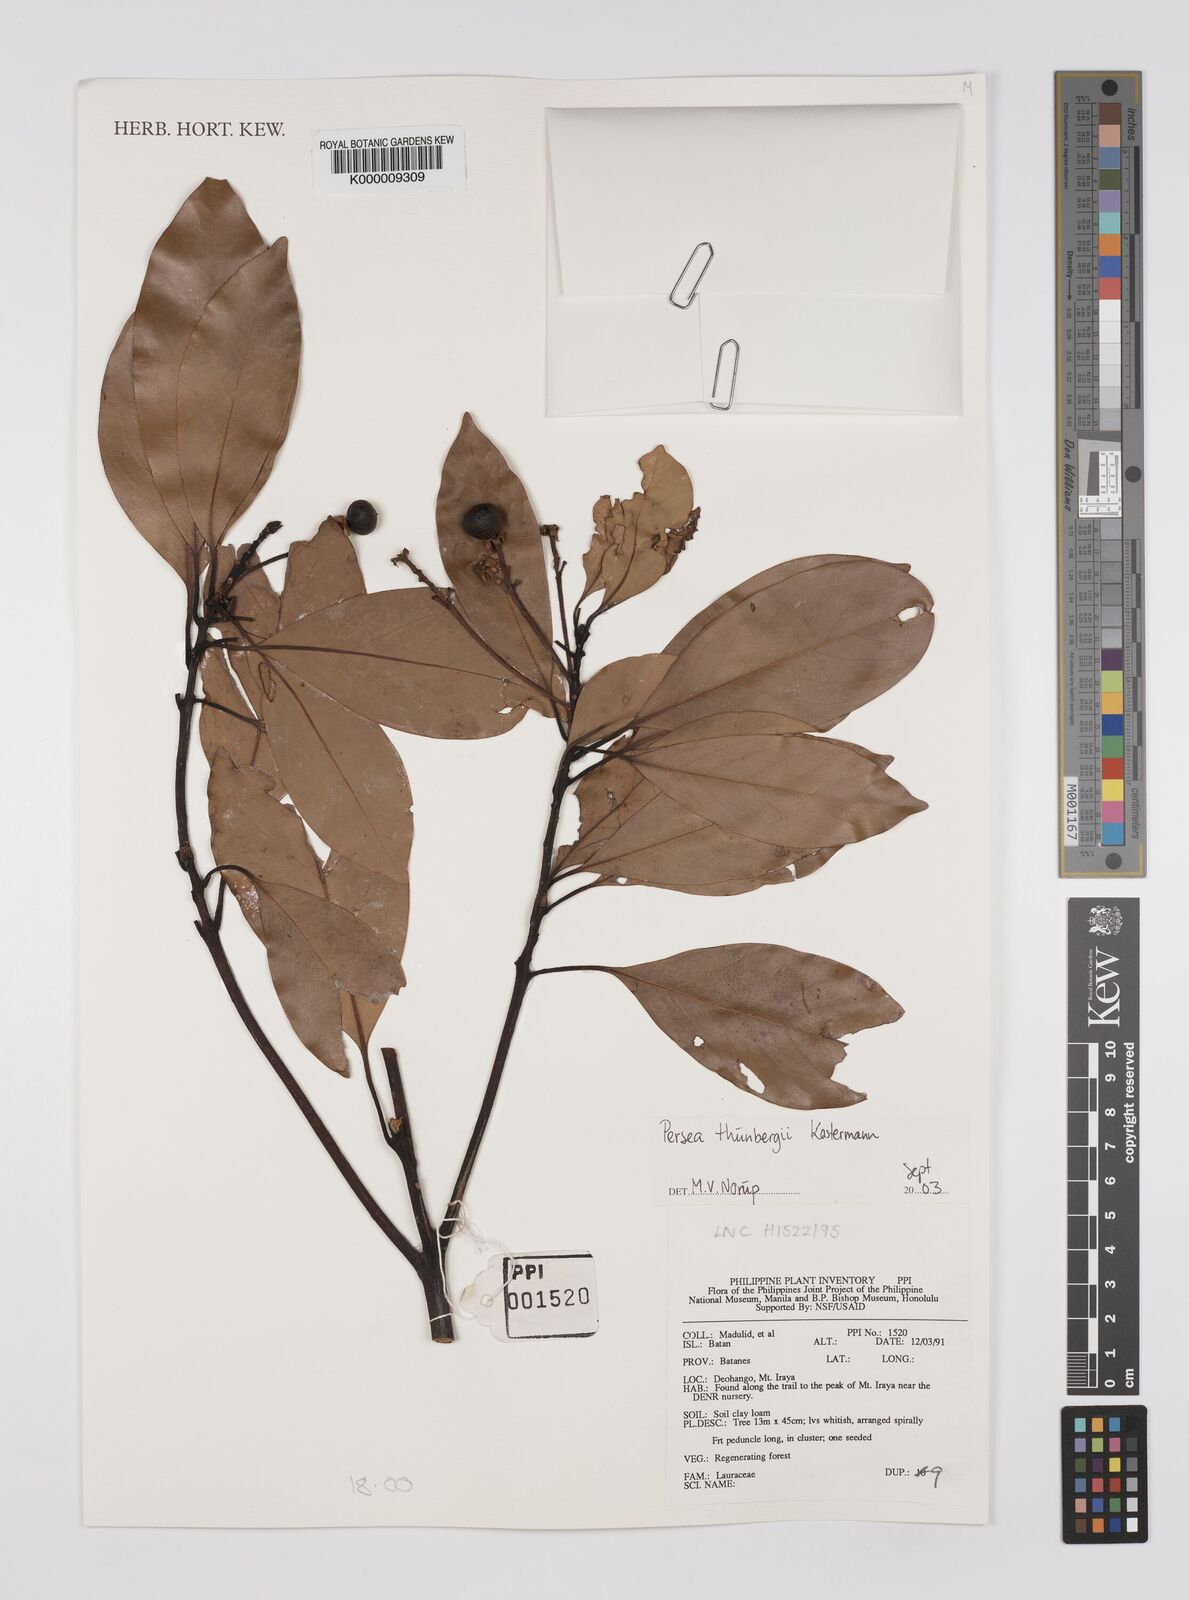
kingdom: Plantae
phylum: Tracheophyta
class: Magnoliopsida
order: Laurales
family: Lauraceae
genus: Machilus
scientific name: Machilus thunbergii
